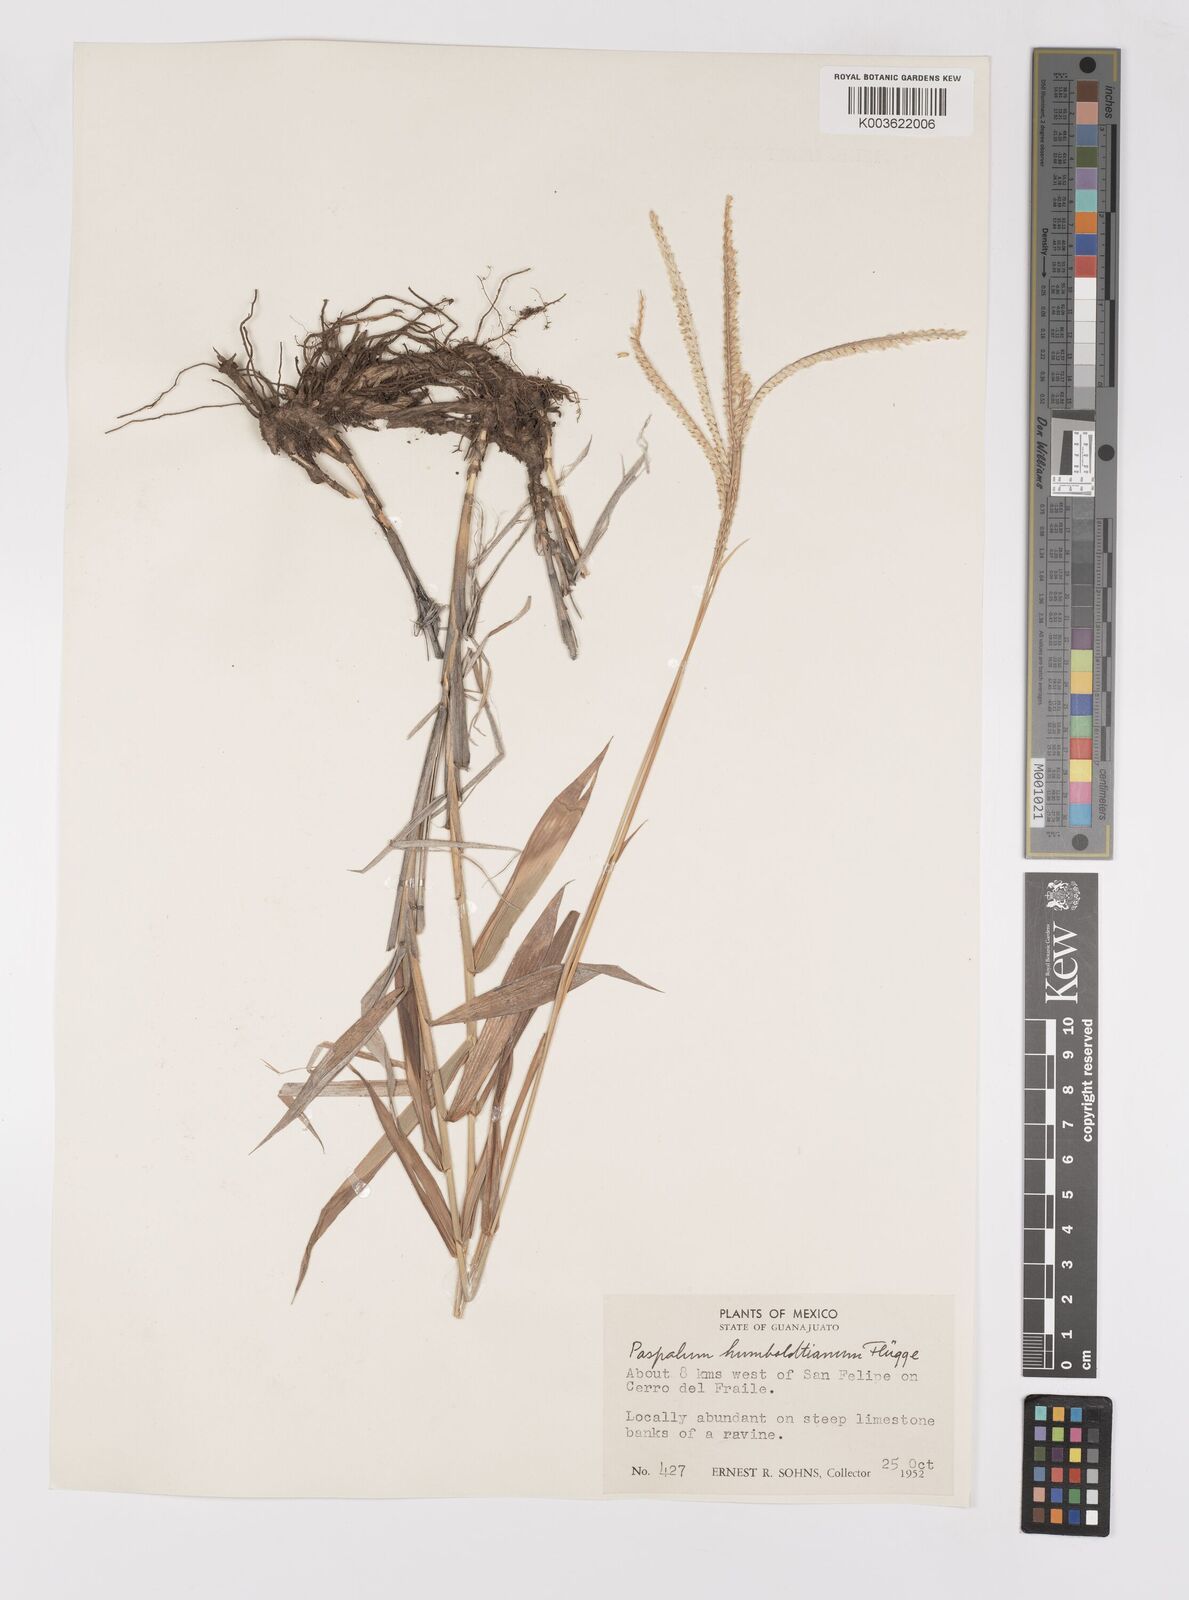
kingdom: Plantae
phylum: Tracheophyta
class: Liliopsida
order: Poales
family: Poaceae
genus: Paspalum
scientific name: Paspalum humboldtianum
